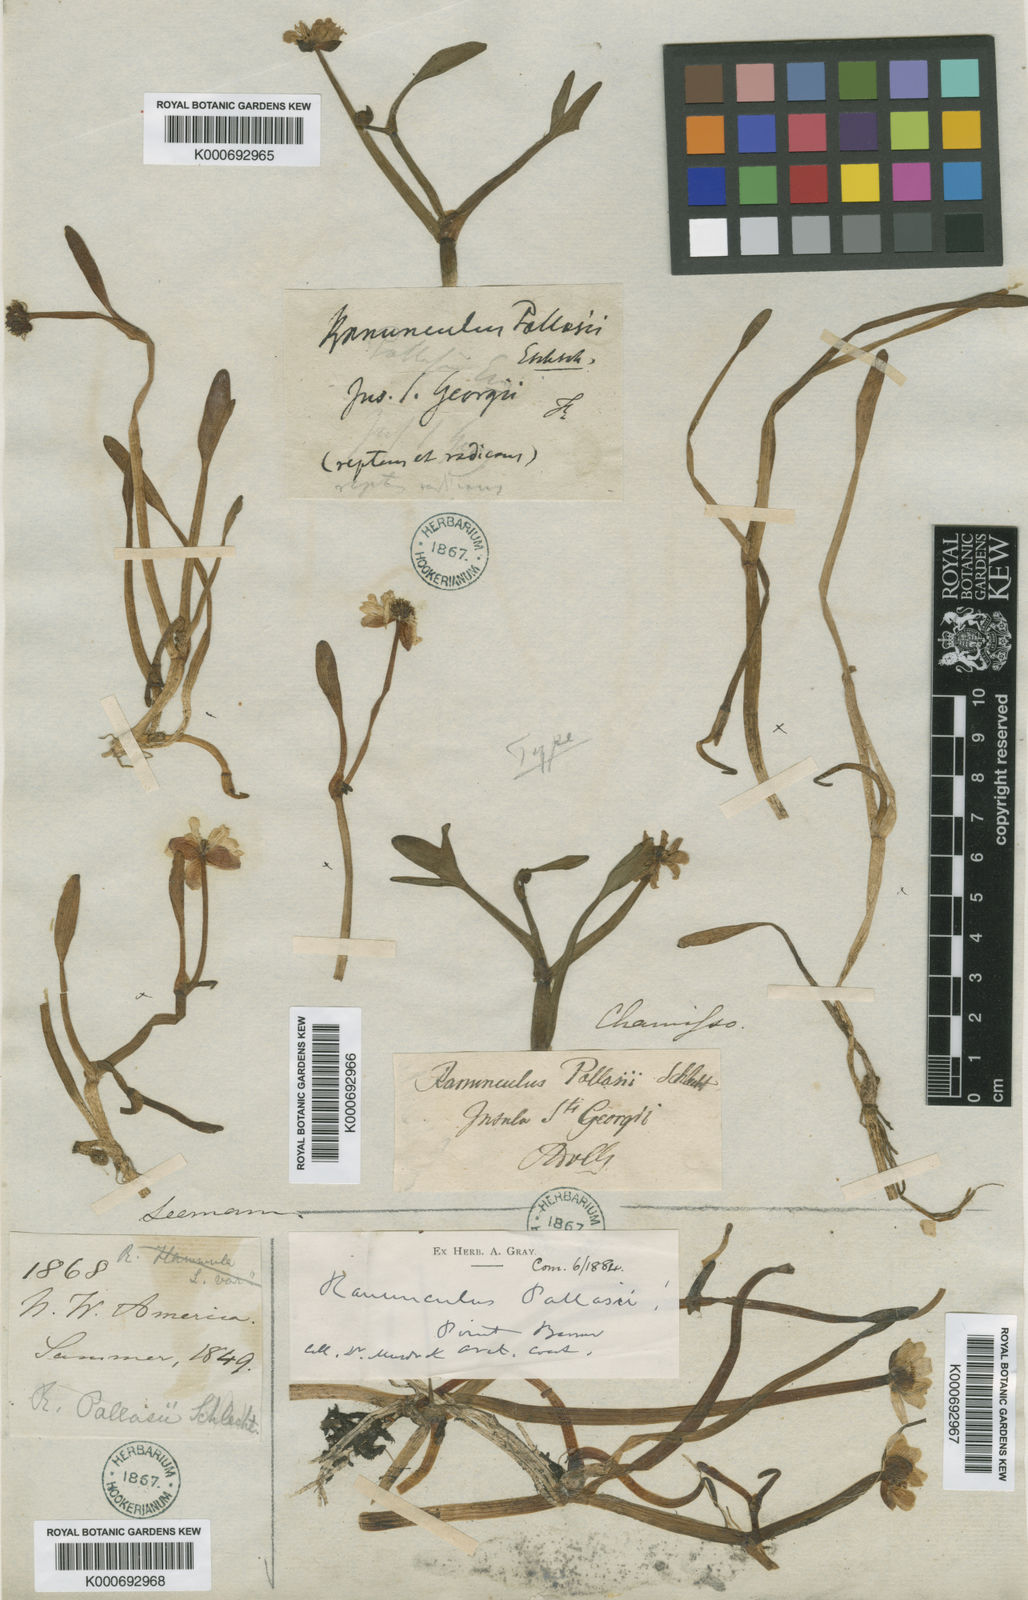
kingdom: Plantae
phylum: Tracheophyta
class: Magnoliopsida
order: Ranunculales
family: Ranunculaceae
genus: Coptidium
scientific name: Coptidium pallasii
